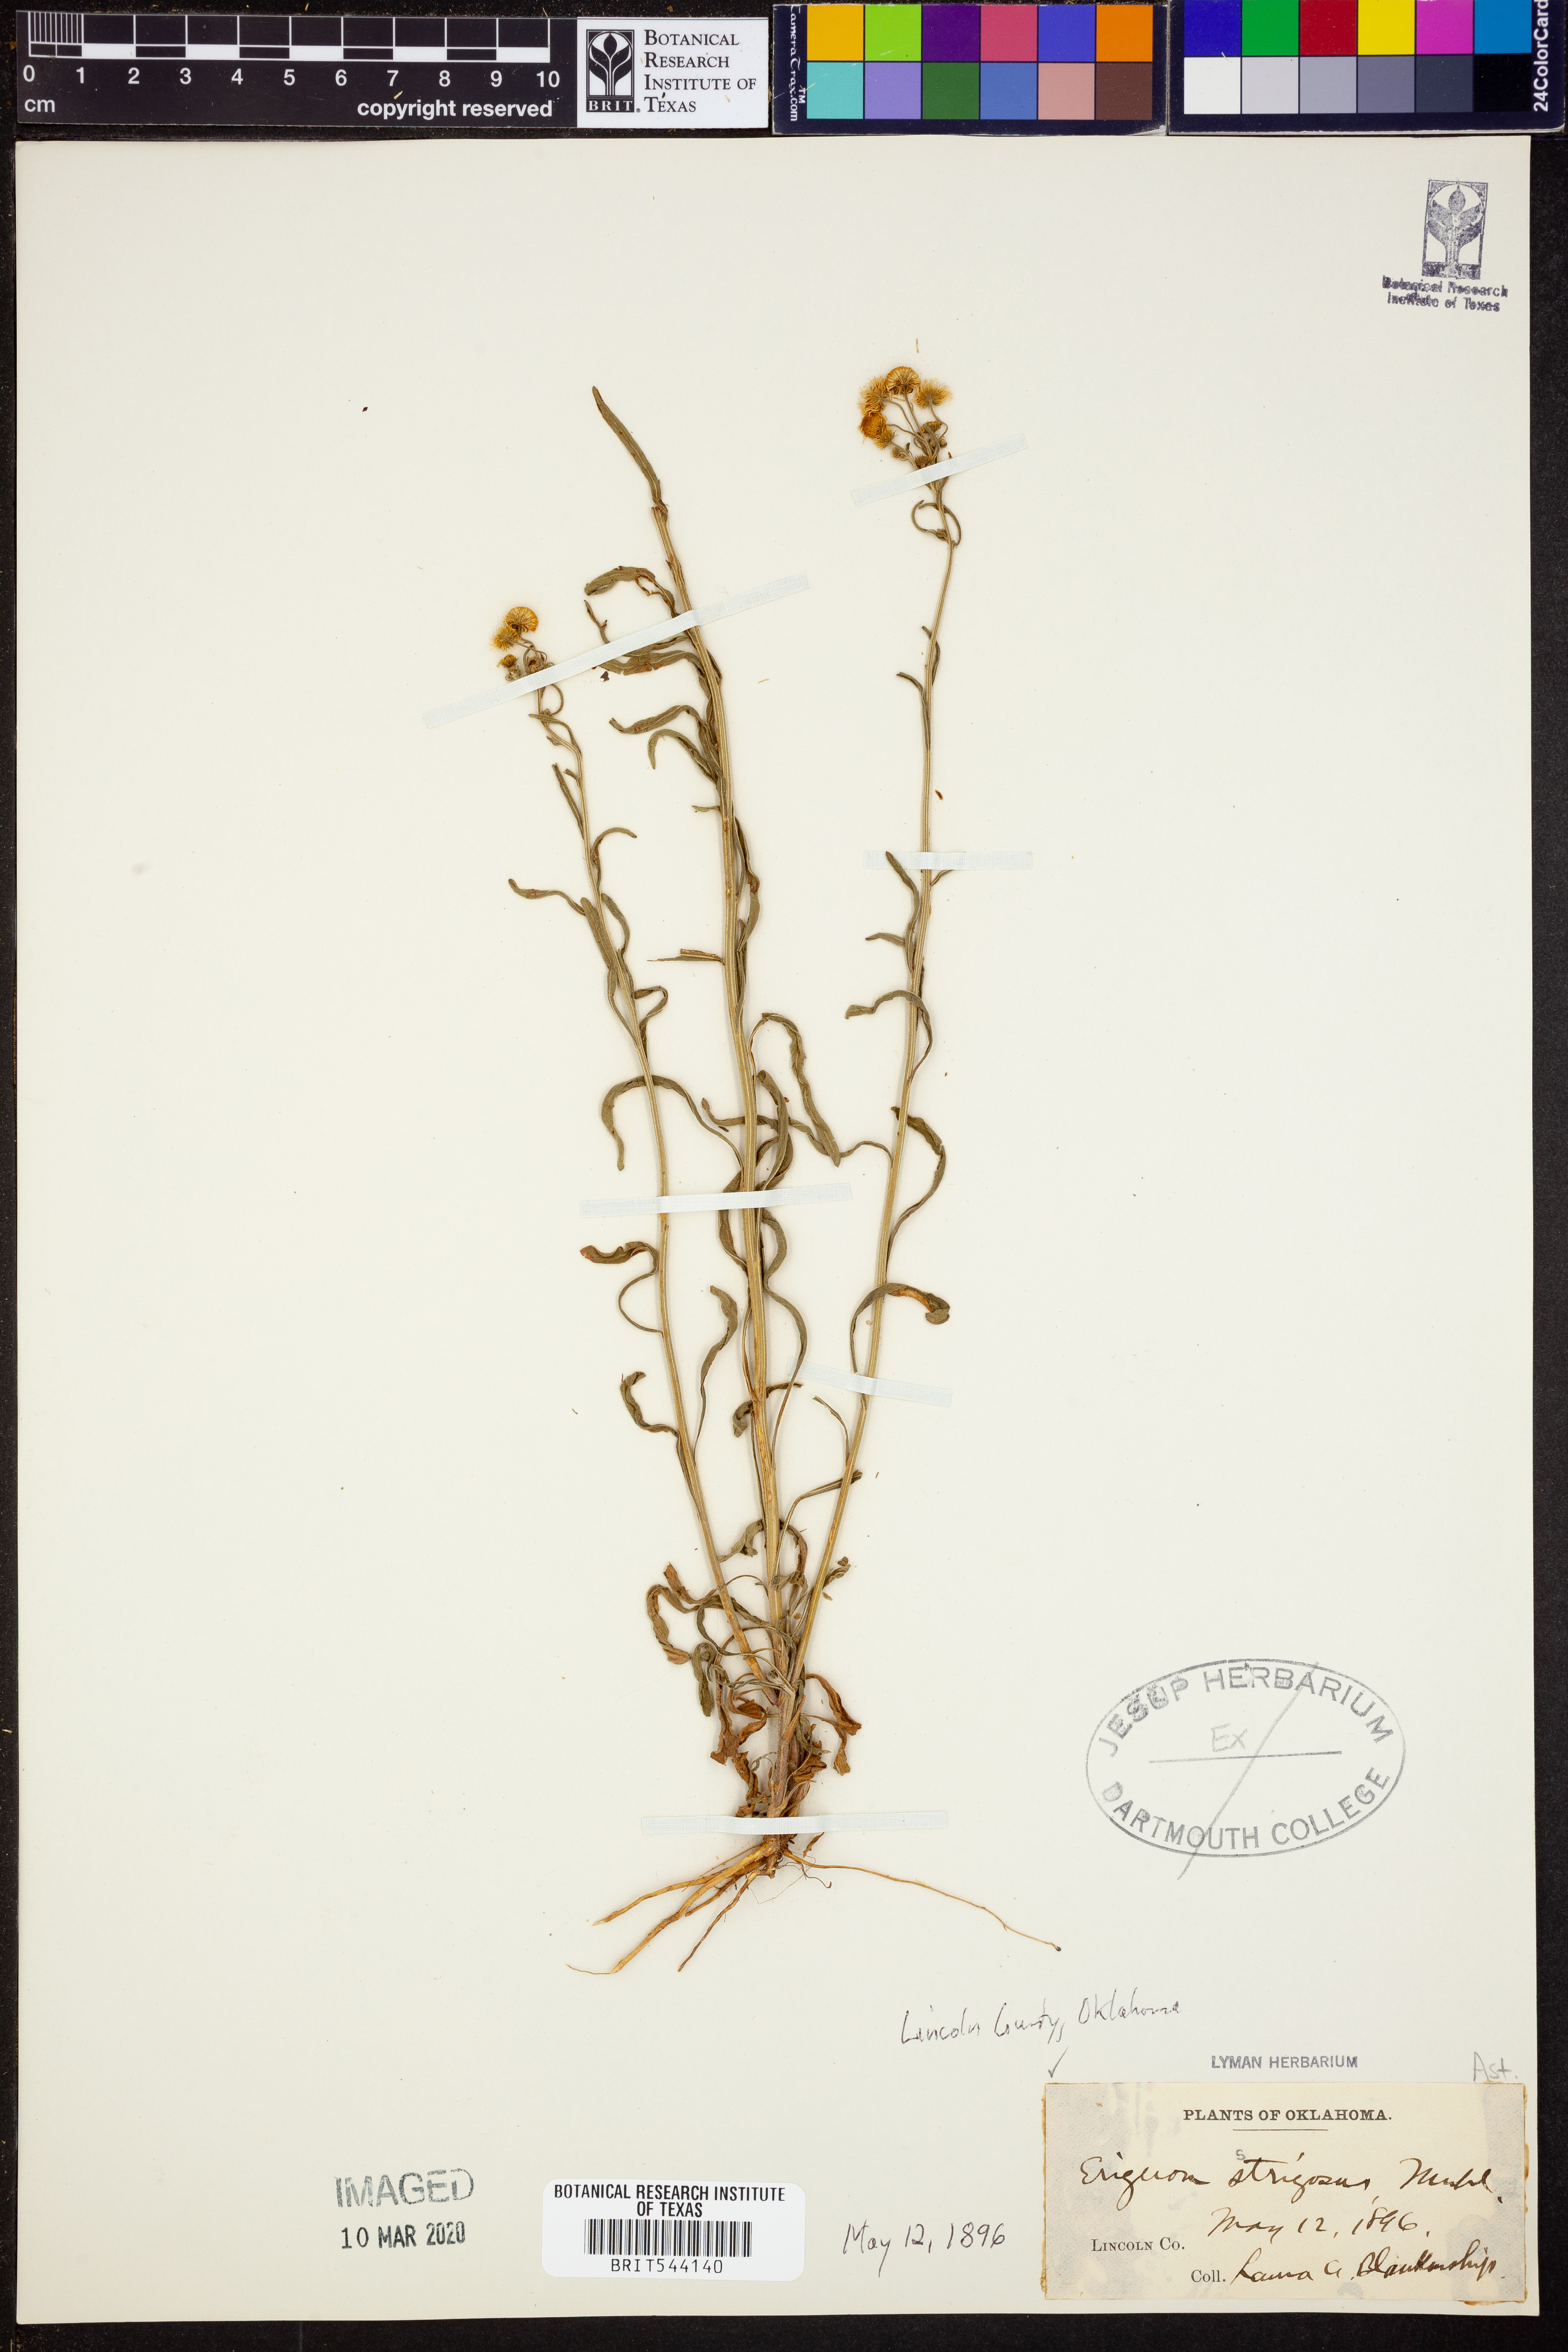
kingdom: Plantae
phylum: Tracheophyta
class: Magnoliopsida
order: Asterales
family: Asteraceae
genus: Erigeron
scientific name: Erigeron strigosus
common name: Common eastern fleabane
